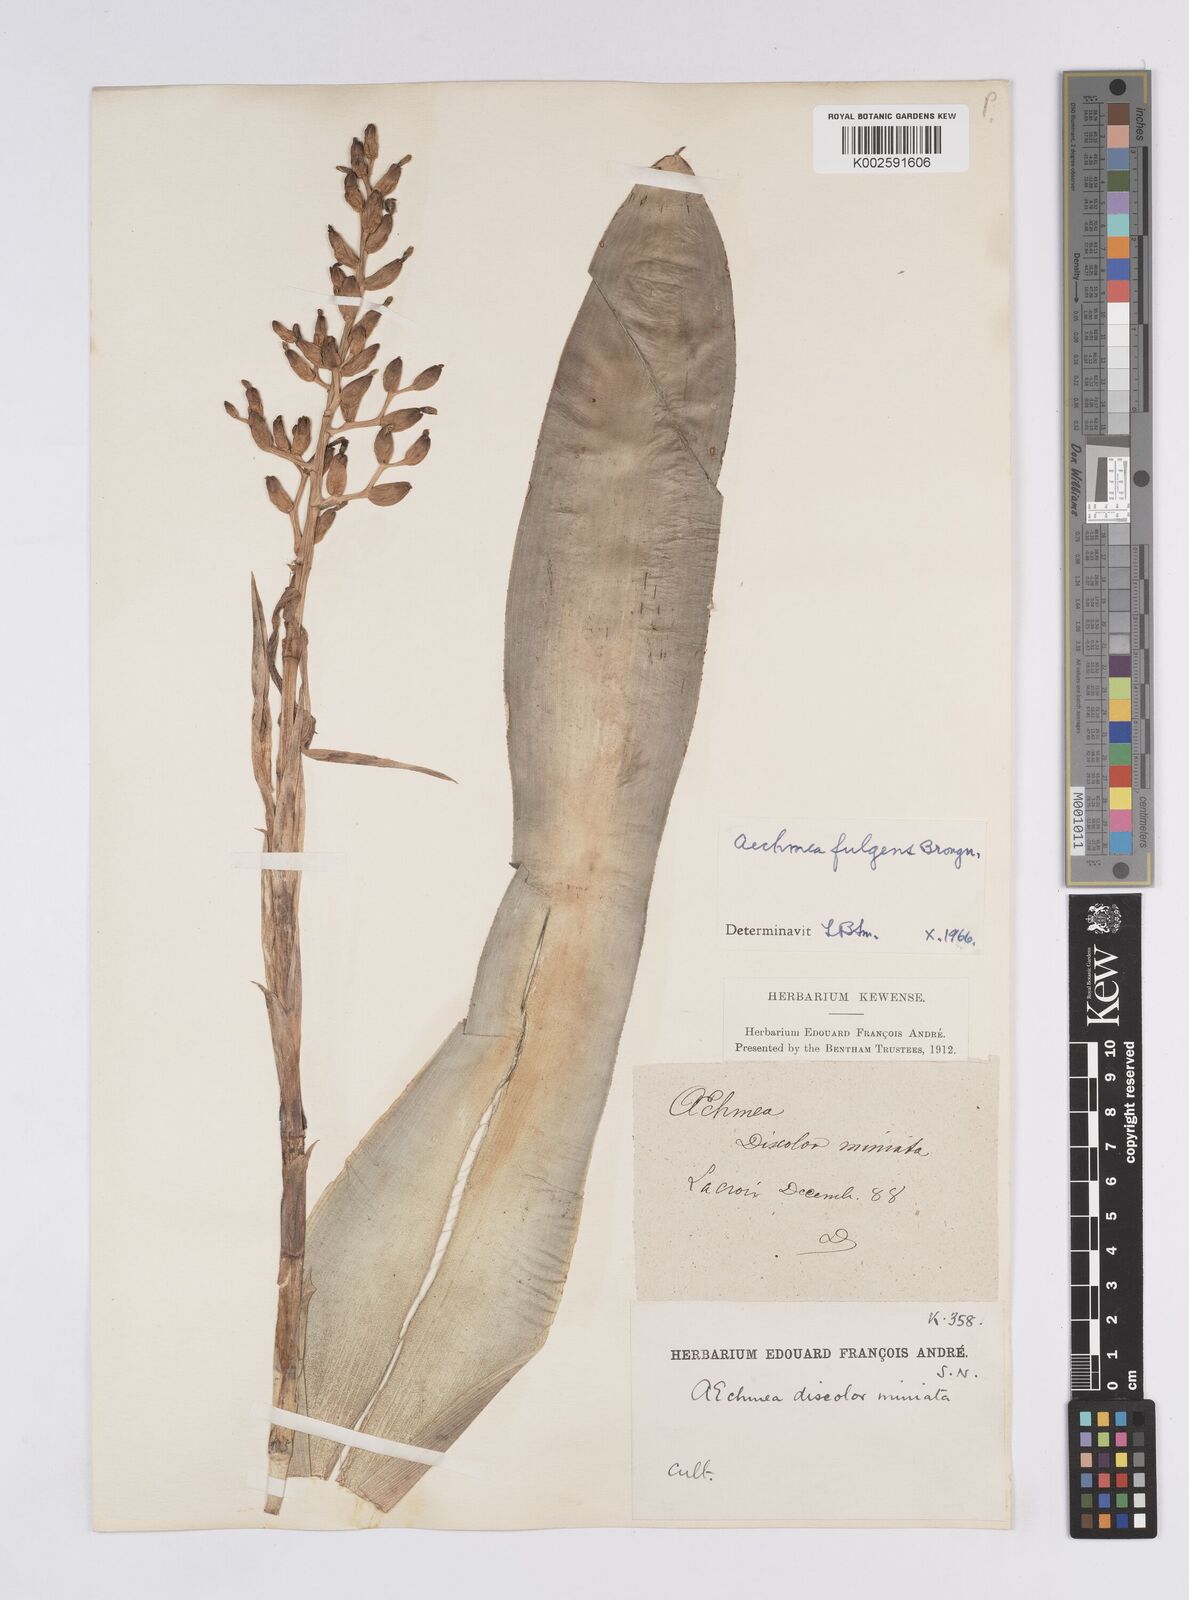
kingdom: Plantae
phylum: Tracheophyta
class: Liliopsida
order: Poales
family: Bromeliaceae
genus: Aechmea
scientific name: Aechmea fulgens
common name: Coralberry
